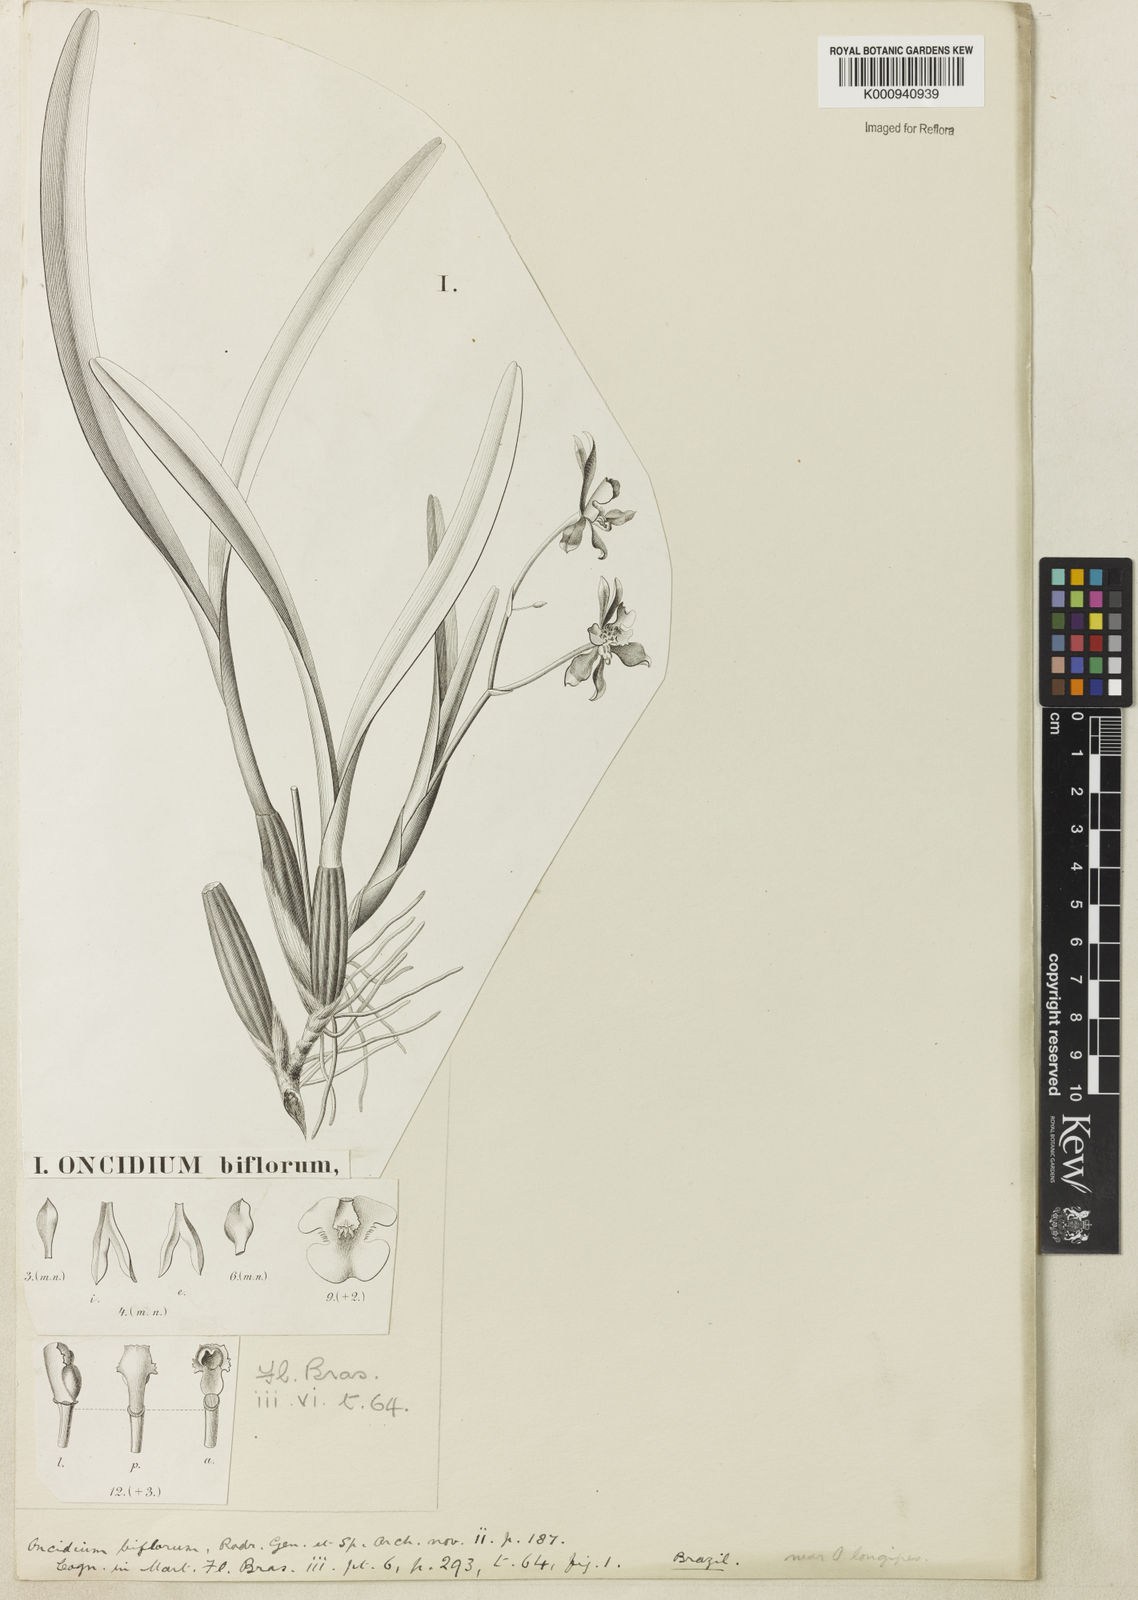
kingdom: Plantae
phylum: Tracheophyta
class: Liliopsida
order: Asparagales
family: Orchidaceae
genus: Gomesa
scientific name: Gomesa uniflora
